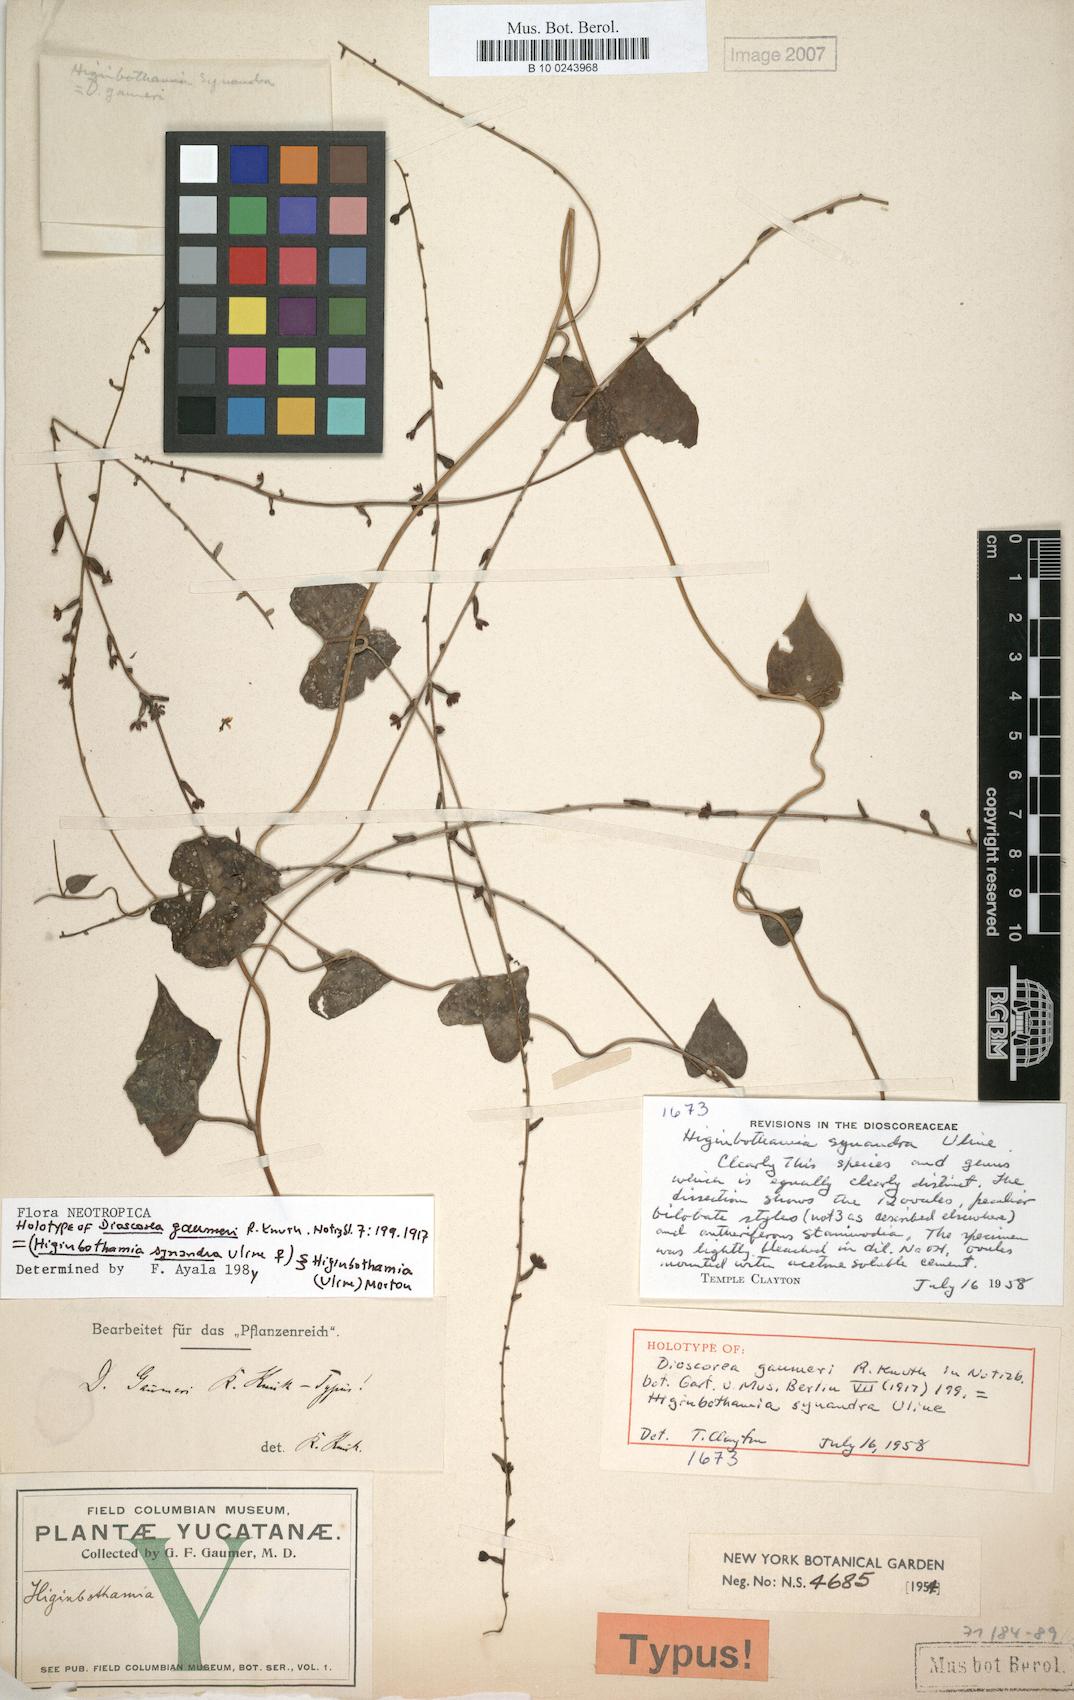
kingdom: Plantae
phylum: Tracheophyta
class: Liliopsida
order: Dioscoreales
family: Dioscoreaceae
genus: Dioscorea
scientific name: Dioscorea gaumeri
